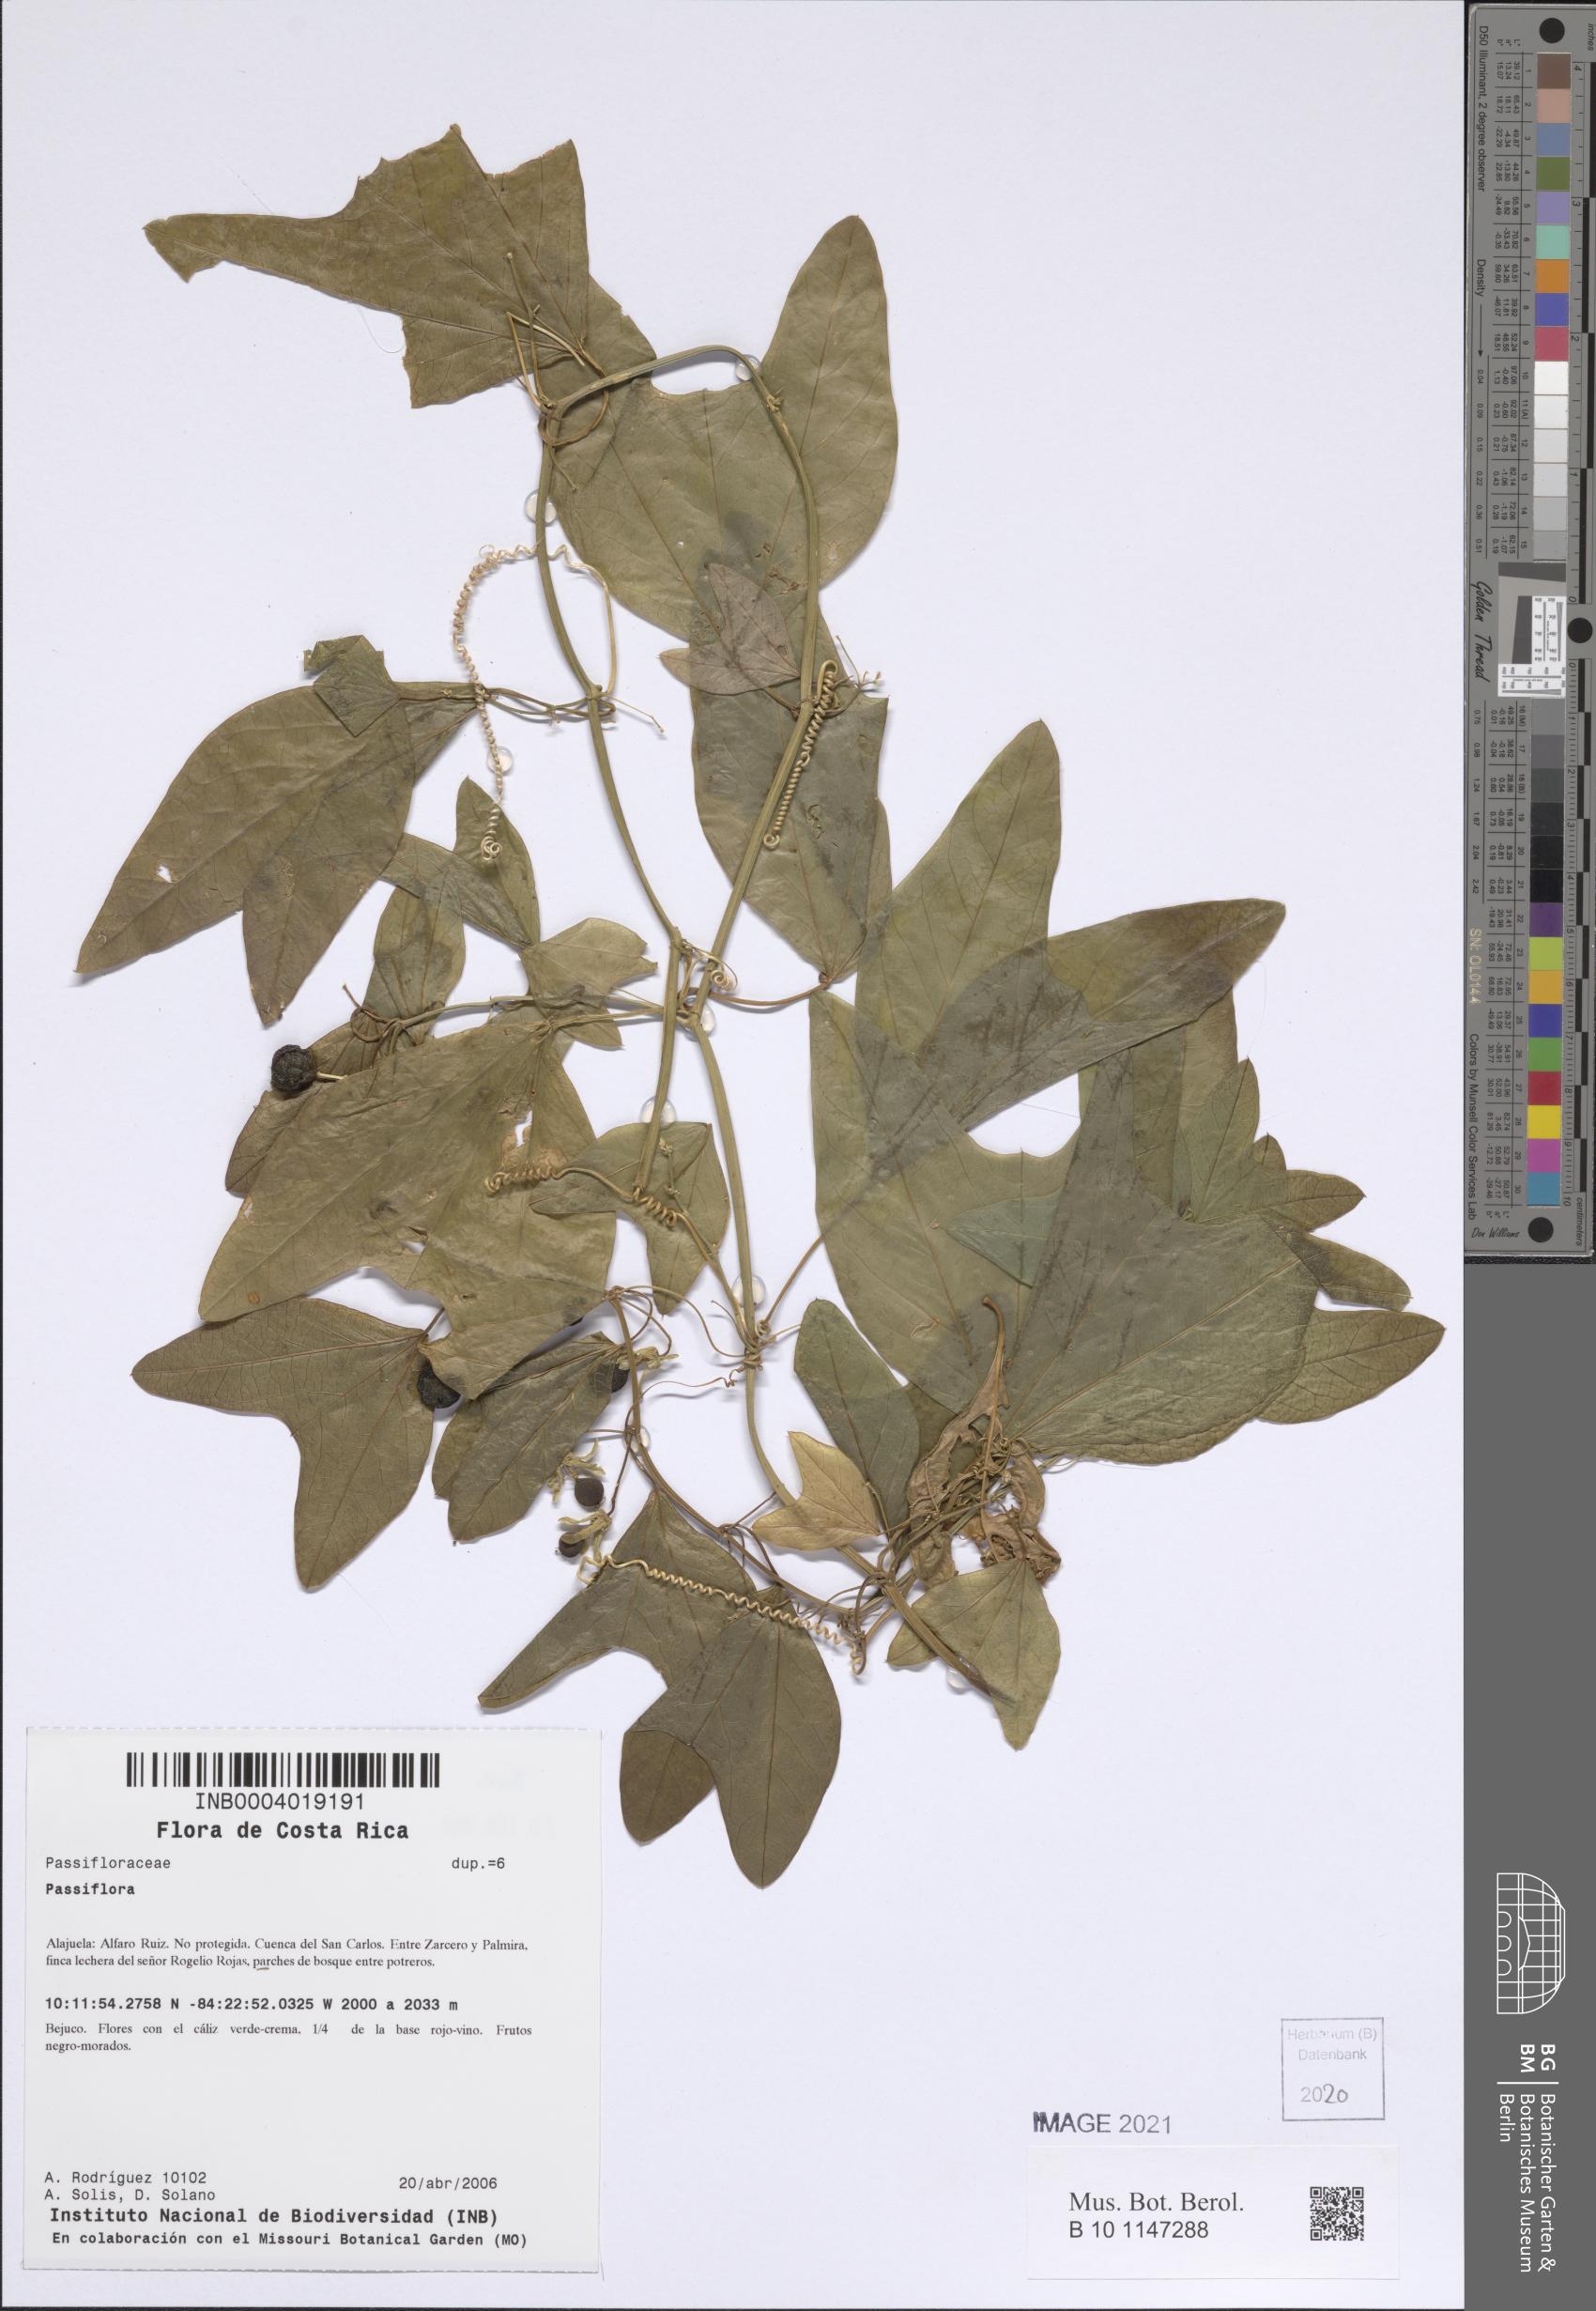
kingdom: Plantae
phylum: Tracheophyta
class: Magnoliopsida
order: Malpighiales
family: Passifloraceae
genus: Passiflora
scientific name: Passiflora
